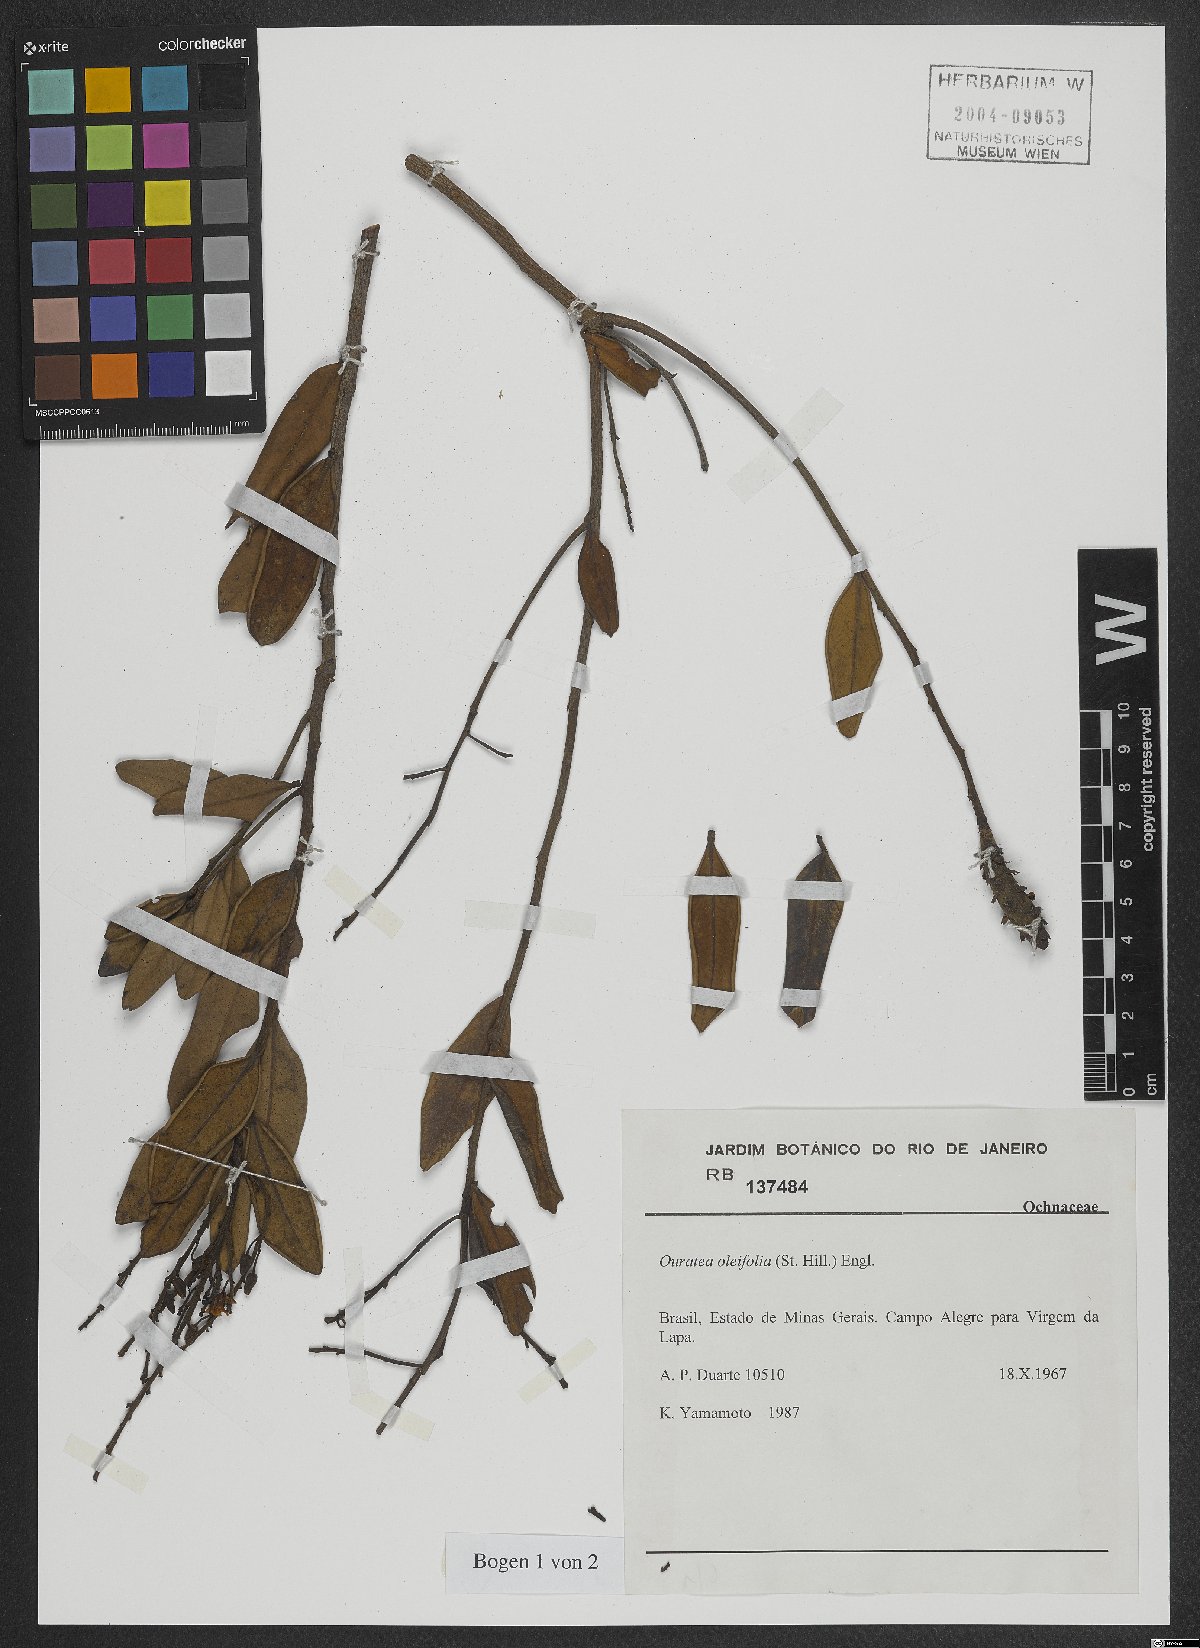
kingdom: Plantae
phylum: Tracheophyta
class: Magnoliopsida
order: Malpighiales
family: Ochnaceae
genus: Ouratea
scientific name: Ouratea oleifolia
